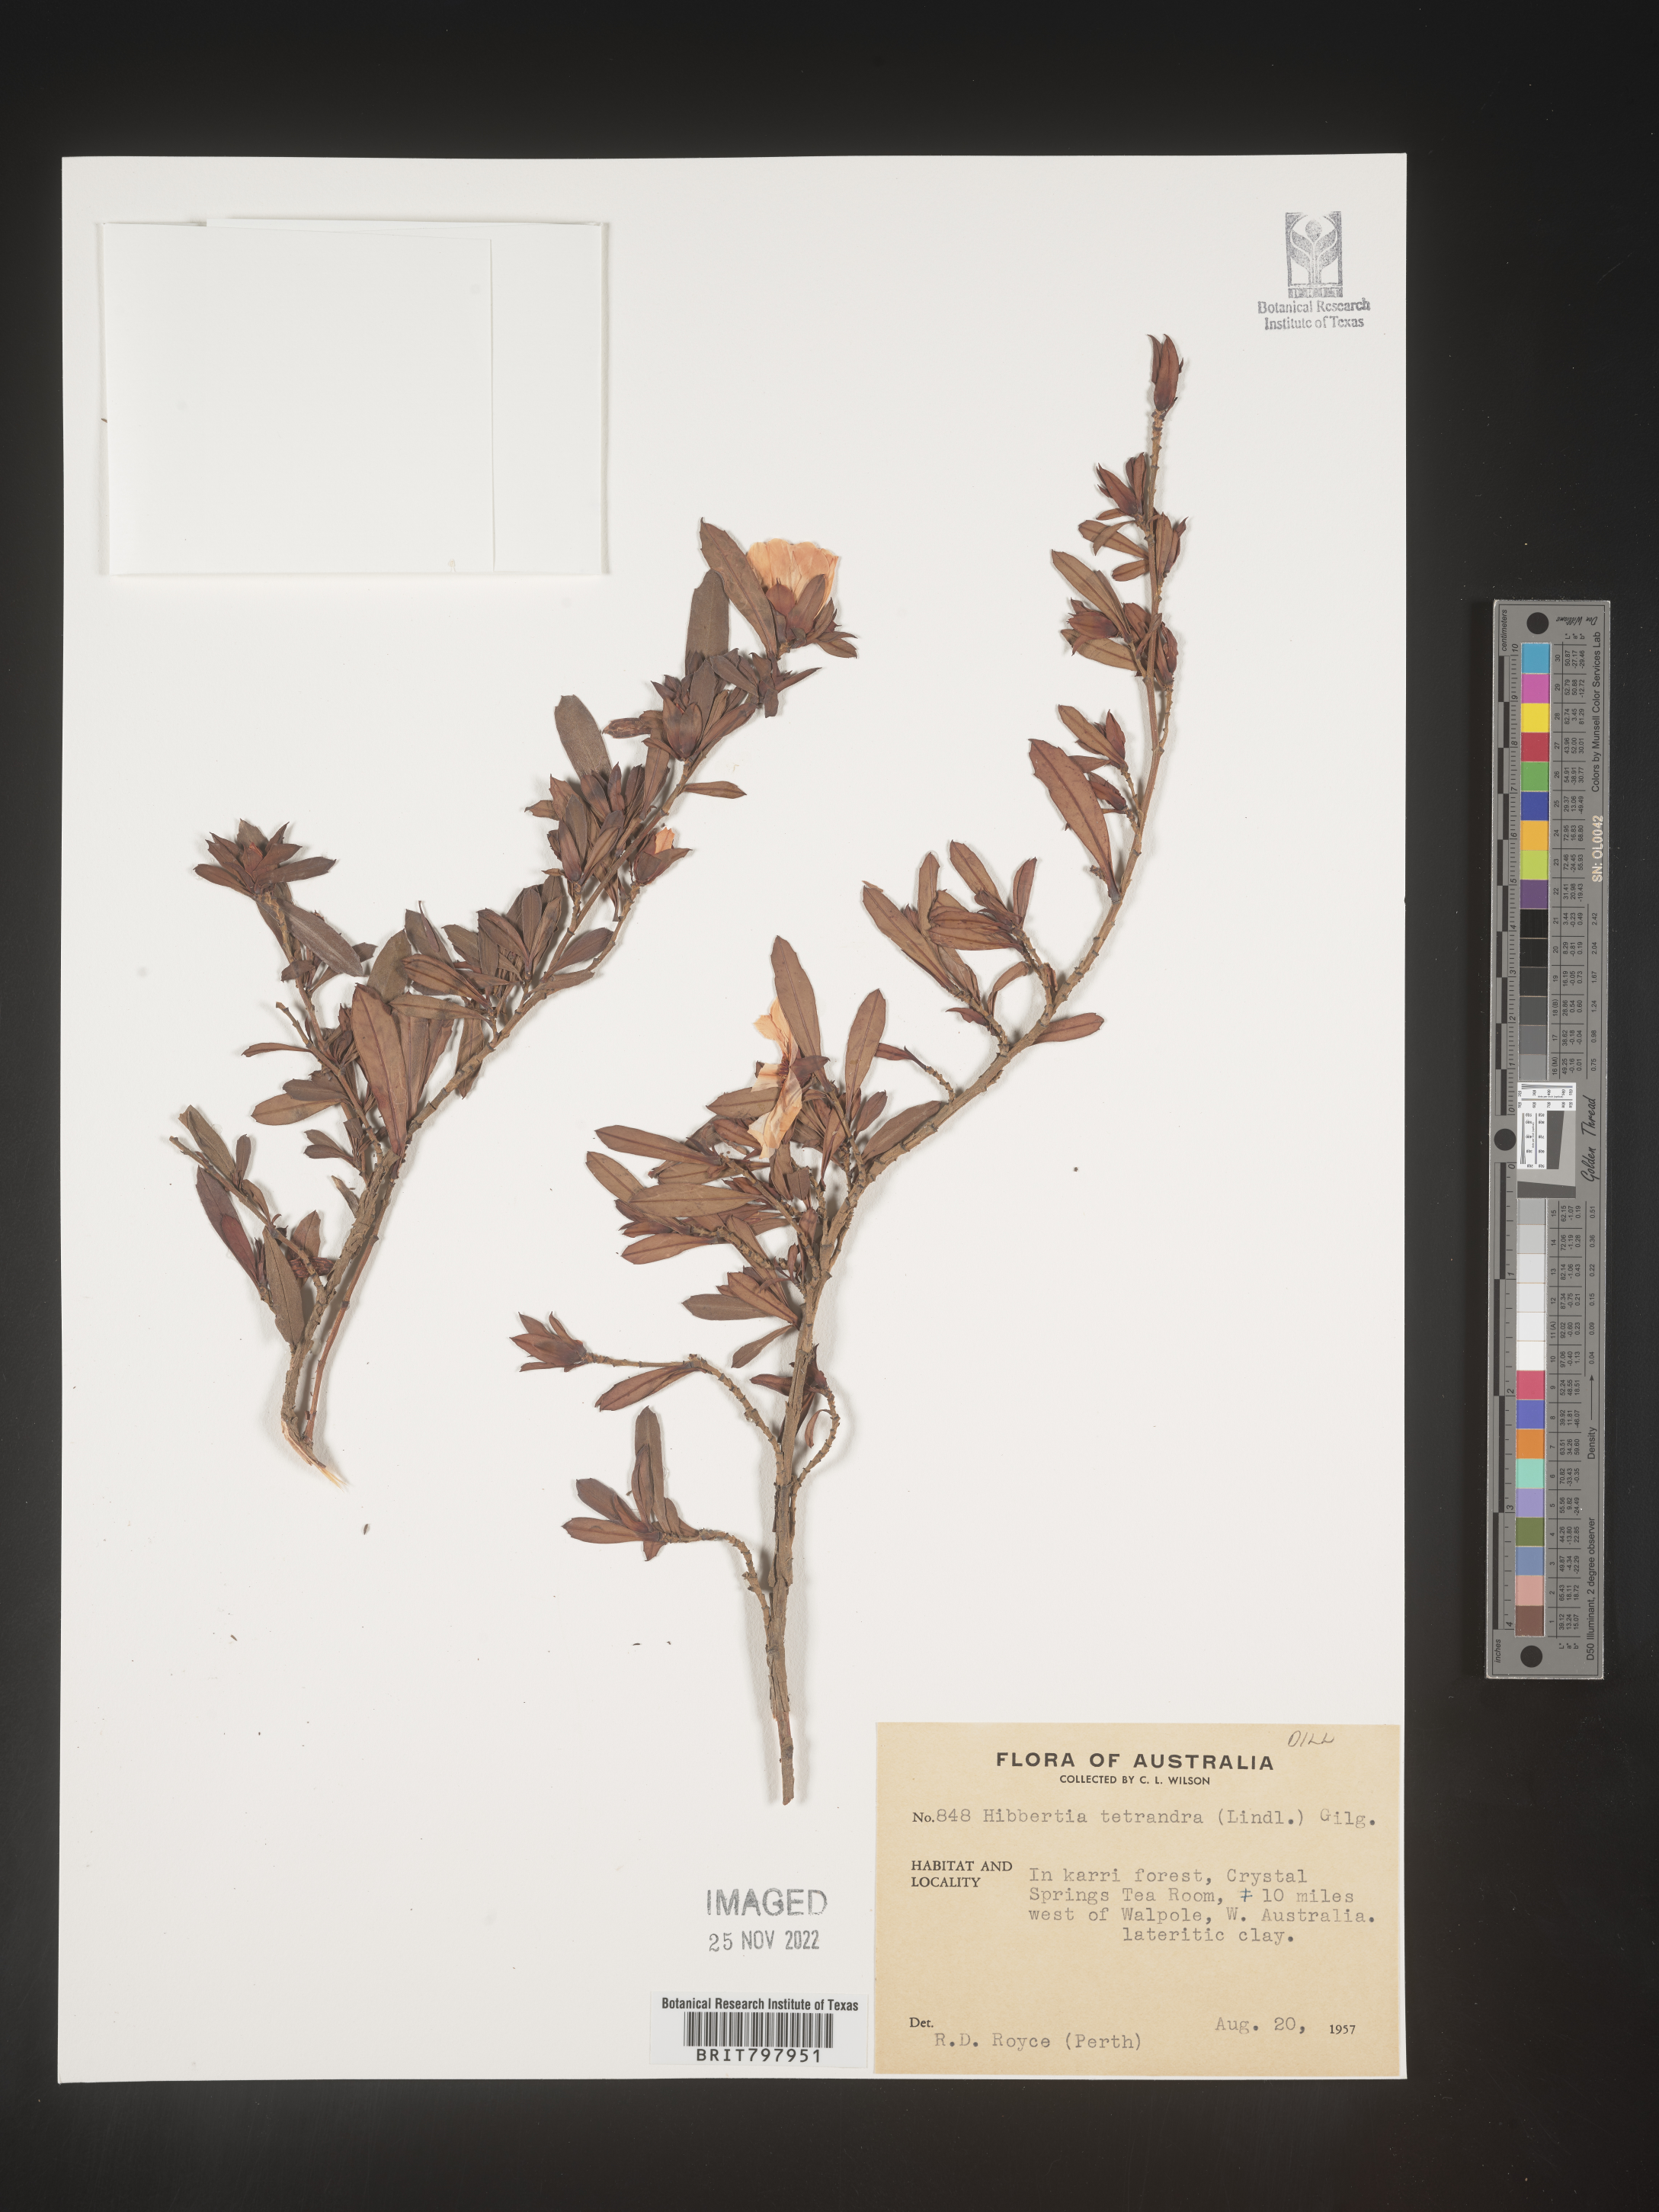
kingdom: Plantae
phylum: Tracheophyta
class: Magnoliopsida
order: Dilleniales
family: Dilleniaceae
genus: Hibbertia
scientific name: Hibbertia
